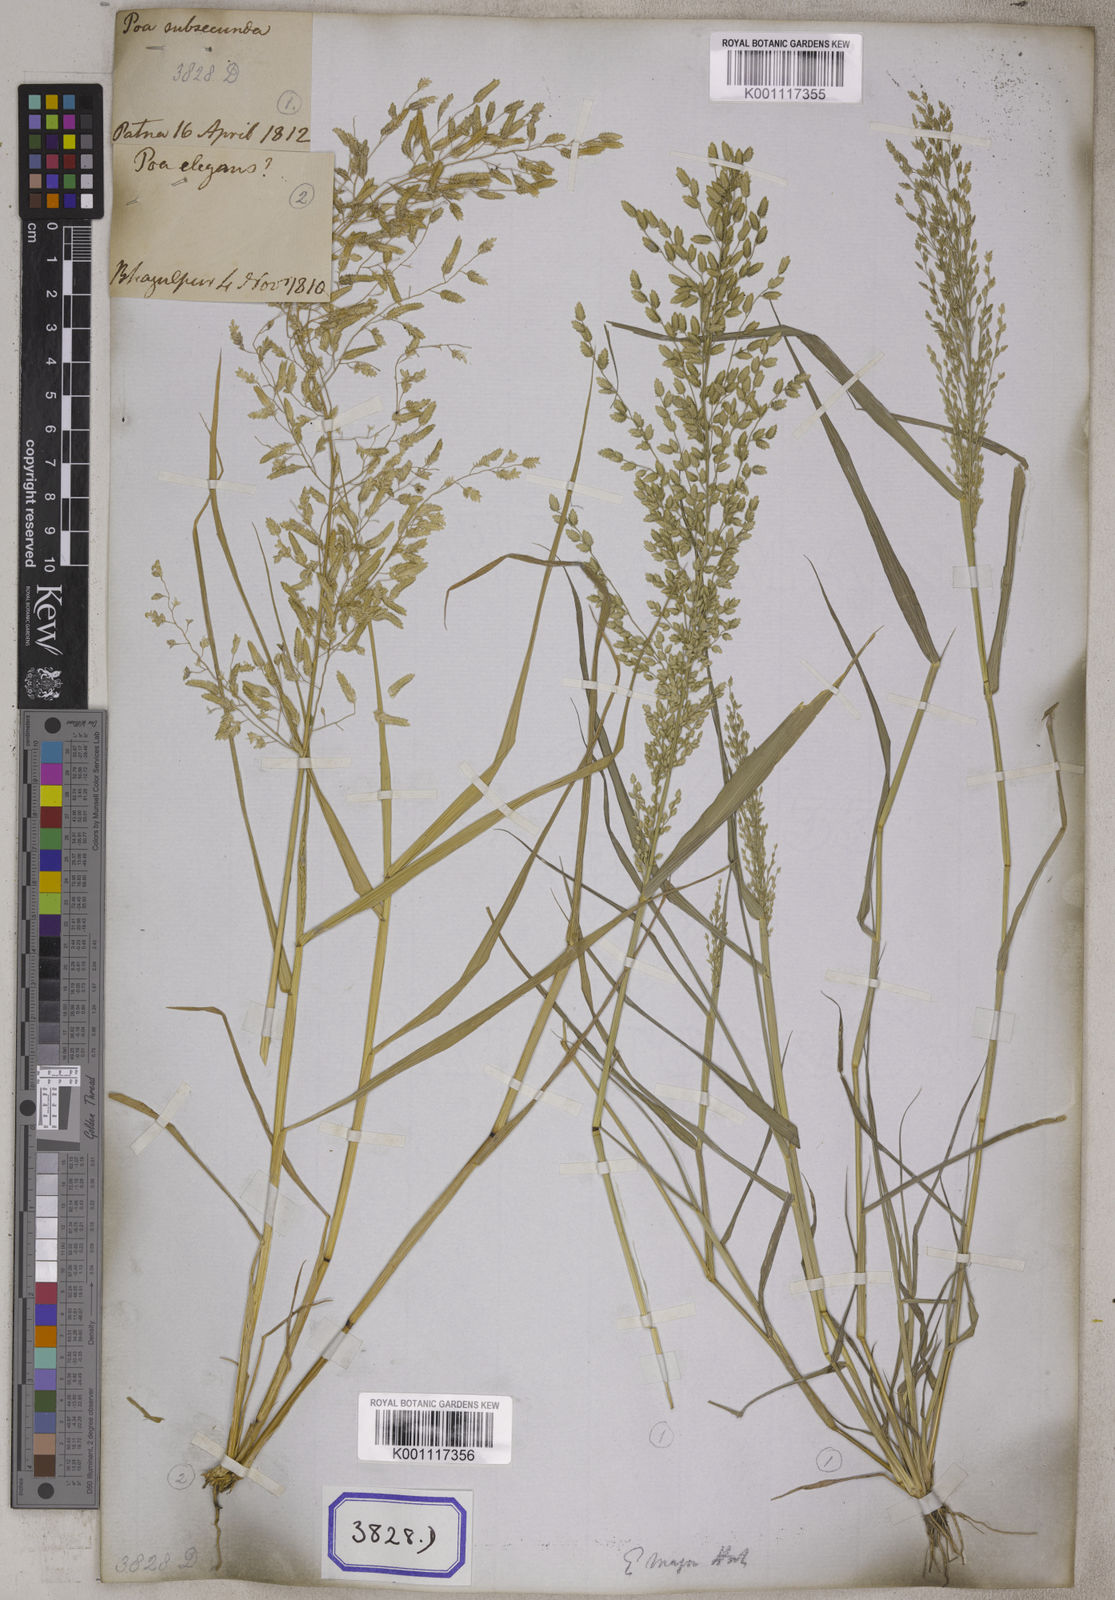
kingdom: Plantae
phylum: Tracheophyta
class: Liliopsida
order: Poales
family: Poaceae
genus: Eragrostis
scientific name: Eragrostis
